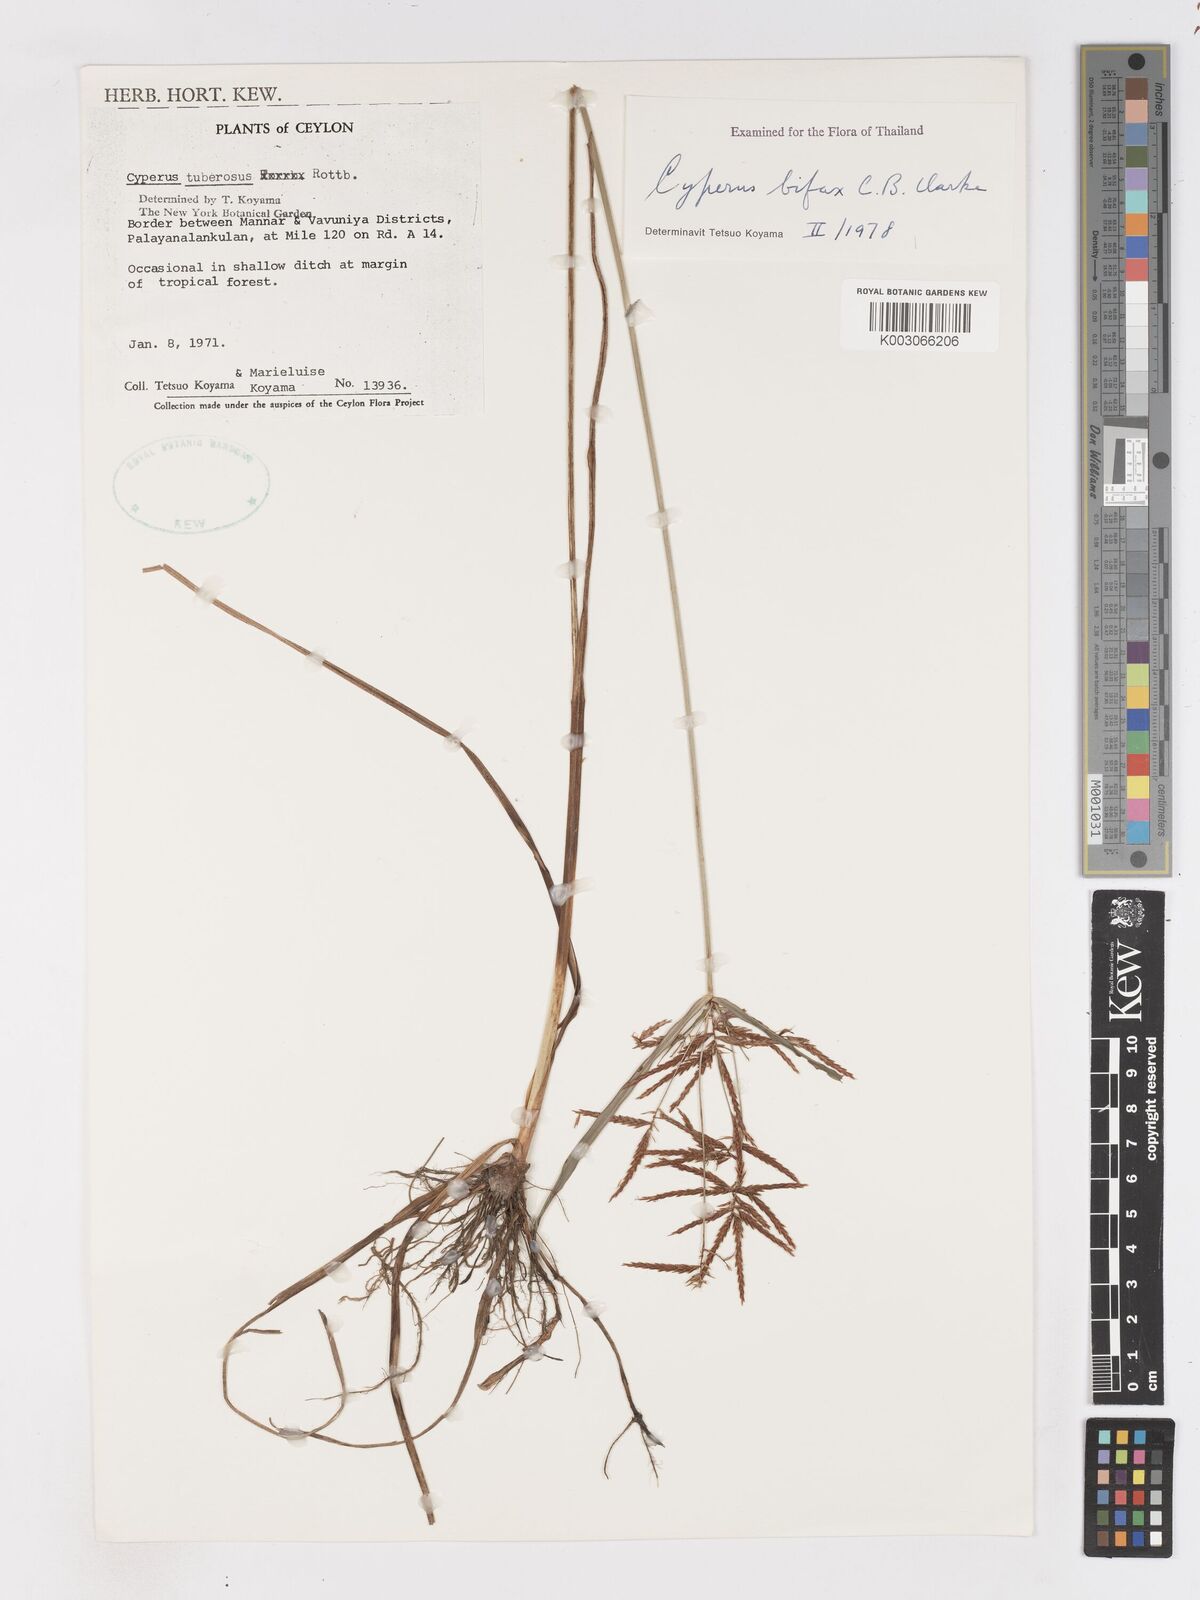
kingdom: Plantae
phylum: Tracheophyta
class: Liliopsida
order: Poales
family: Cyperaceae
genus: Cyperus
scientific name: Cyperus bifax
